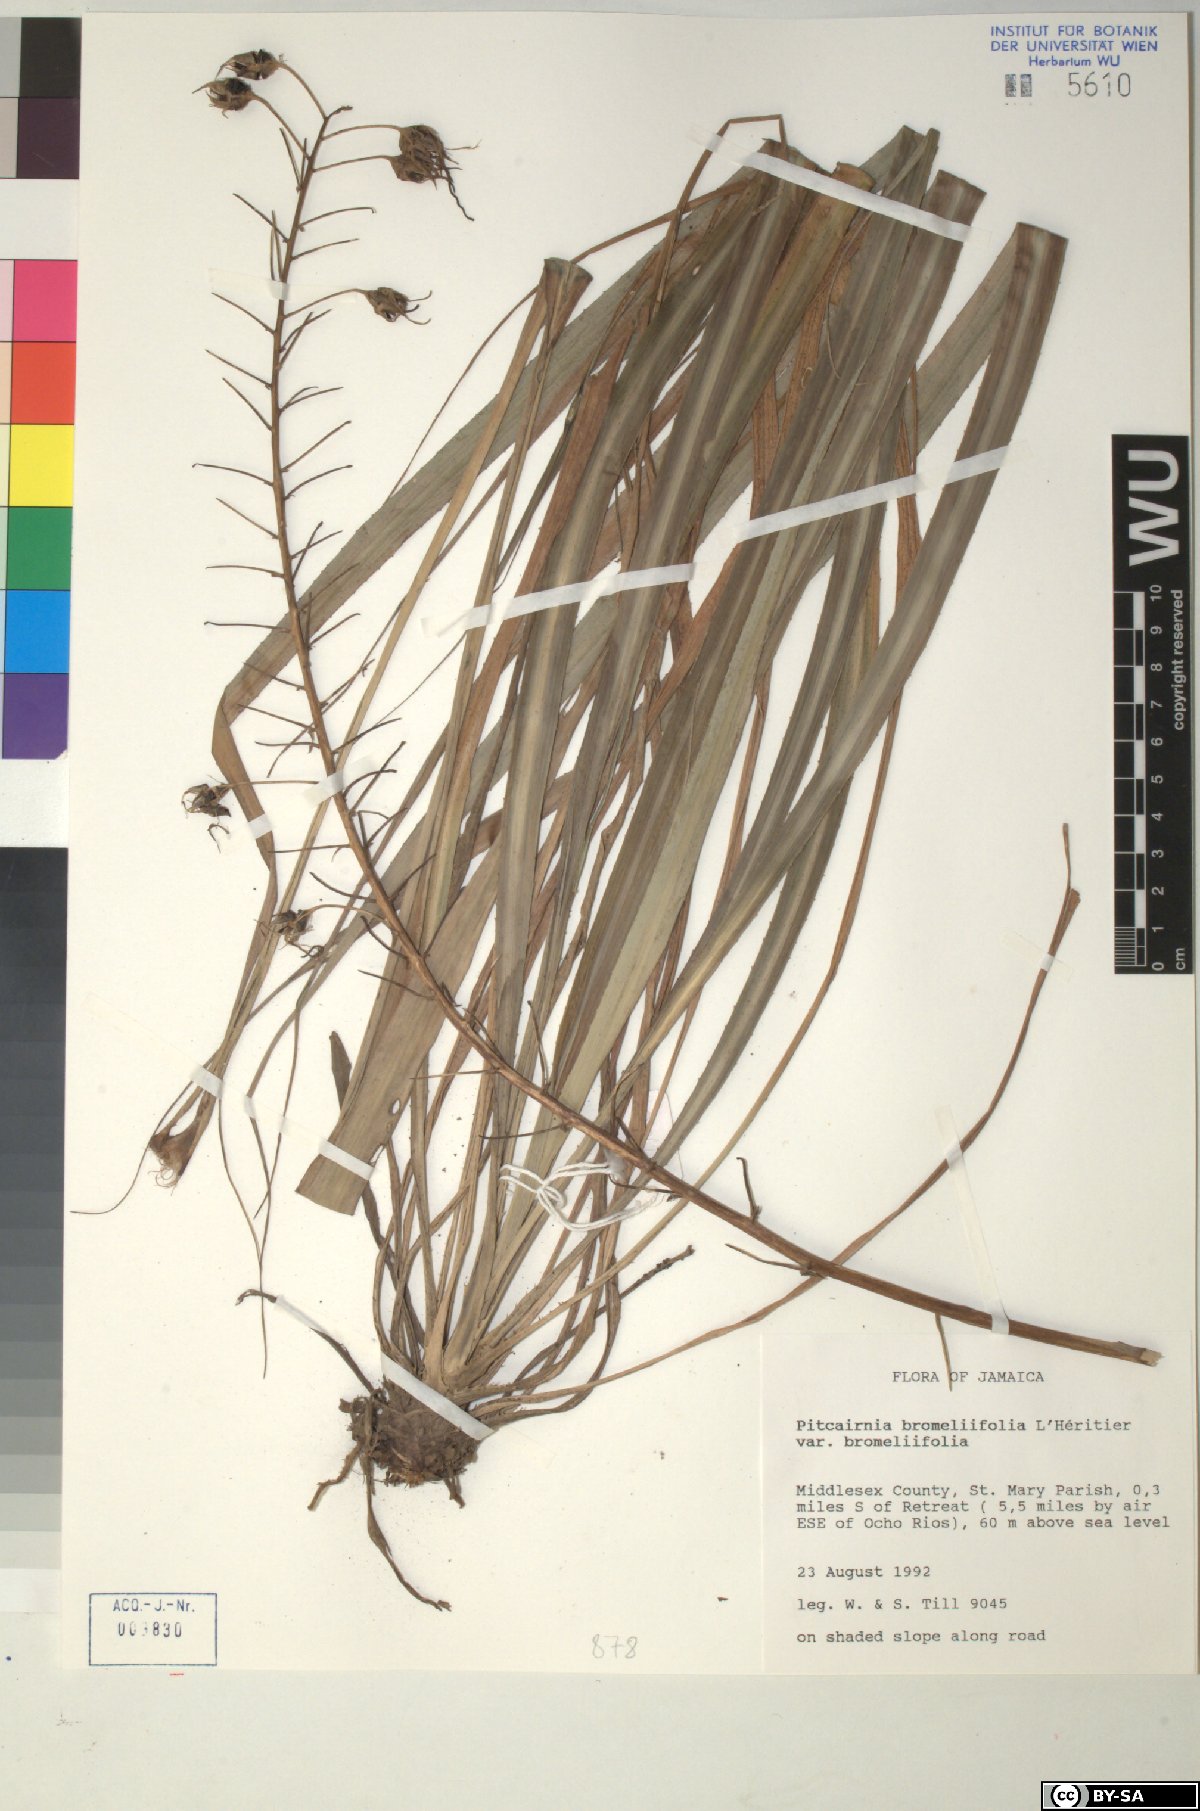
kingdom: Plantae
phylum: Tracheophyta
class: Liliopsida
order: Poales
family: Bromeliaceae
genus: Pitcairnia
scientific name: Pitcairnia bromeliifolia
